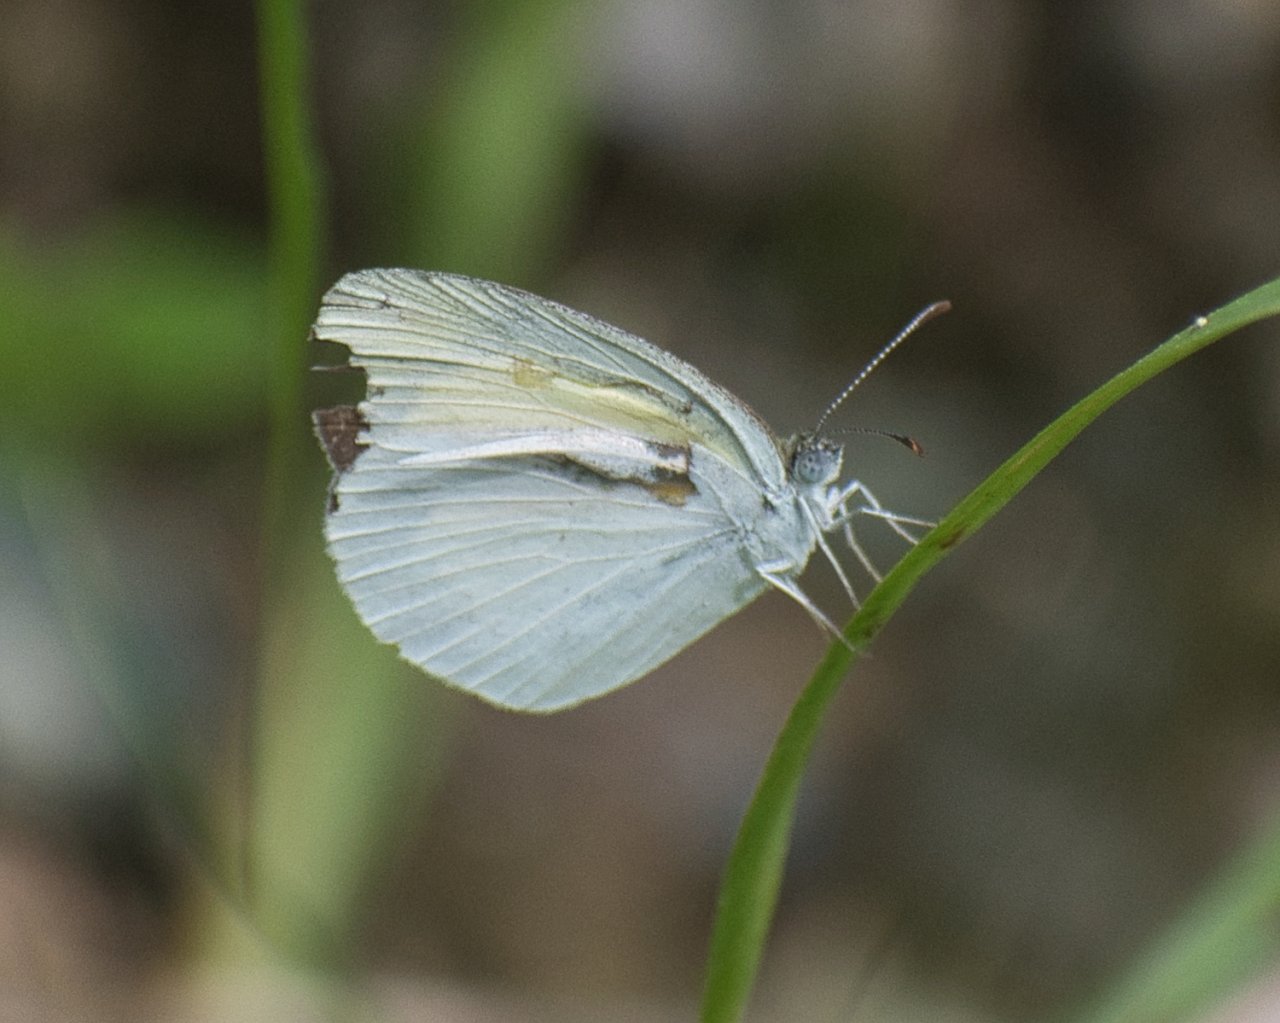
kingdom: Animalia
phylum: Arthropoda
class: Insecta
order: Lepidoptera
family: Pieridae
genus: Eurema
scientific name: Eurema daira
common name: Barred Yellow
